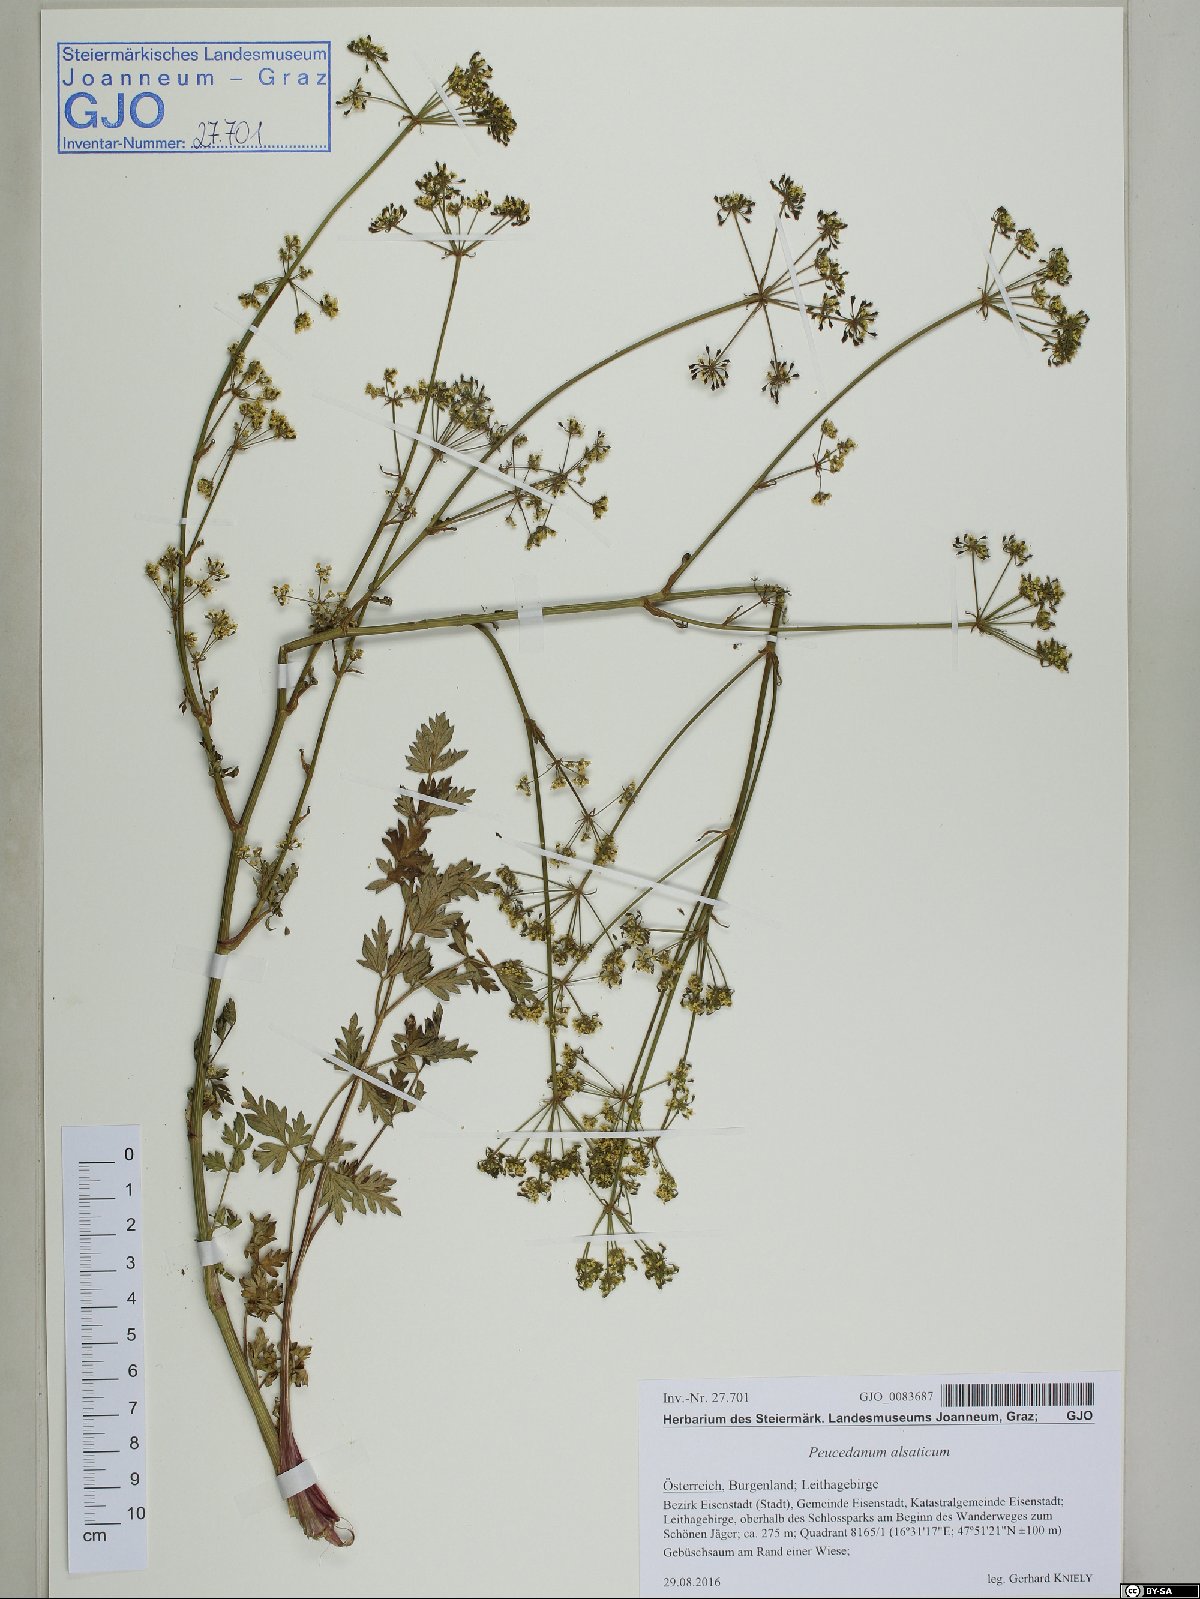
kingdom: Plantae
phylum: Tracheophyta
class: Magnoliopsida
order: Apiales
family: Apiaceae
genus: Xanthoselinum
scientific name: Xanthoselinum alsaticum
